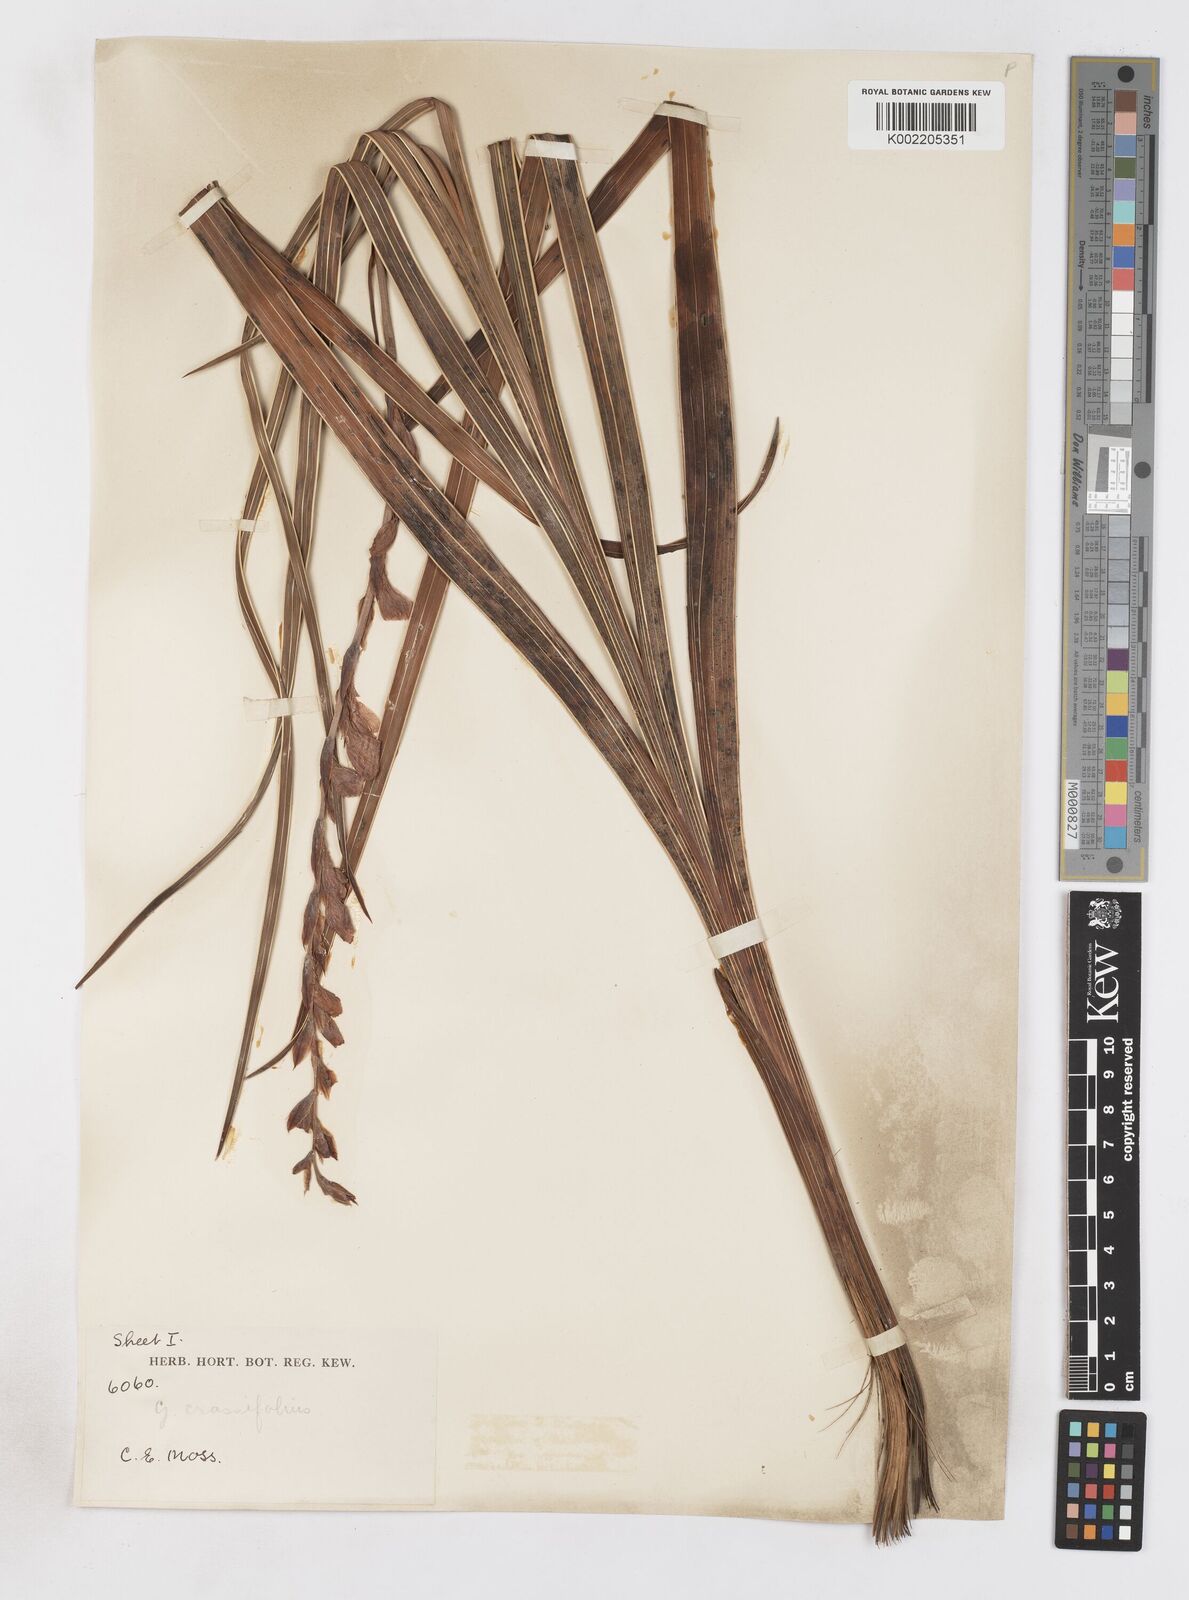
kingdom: Plantae
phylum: Tracheophyta
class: Liliopsida
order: Asparagales
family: Iridaceae
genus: Gladiolus
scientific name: Gladiolus crassifolius
